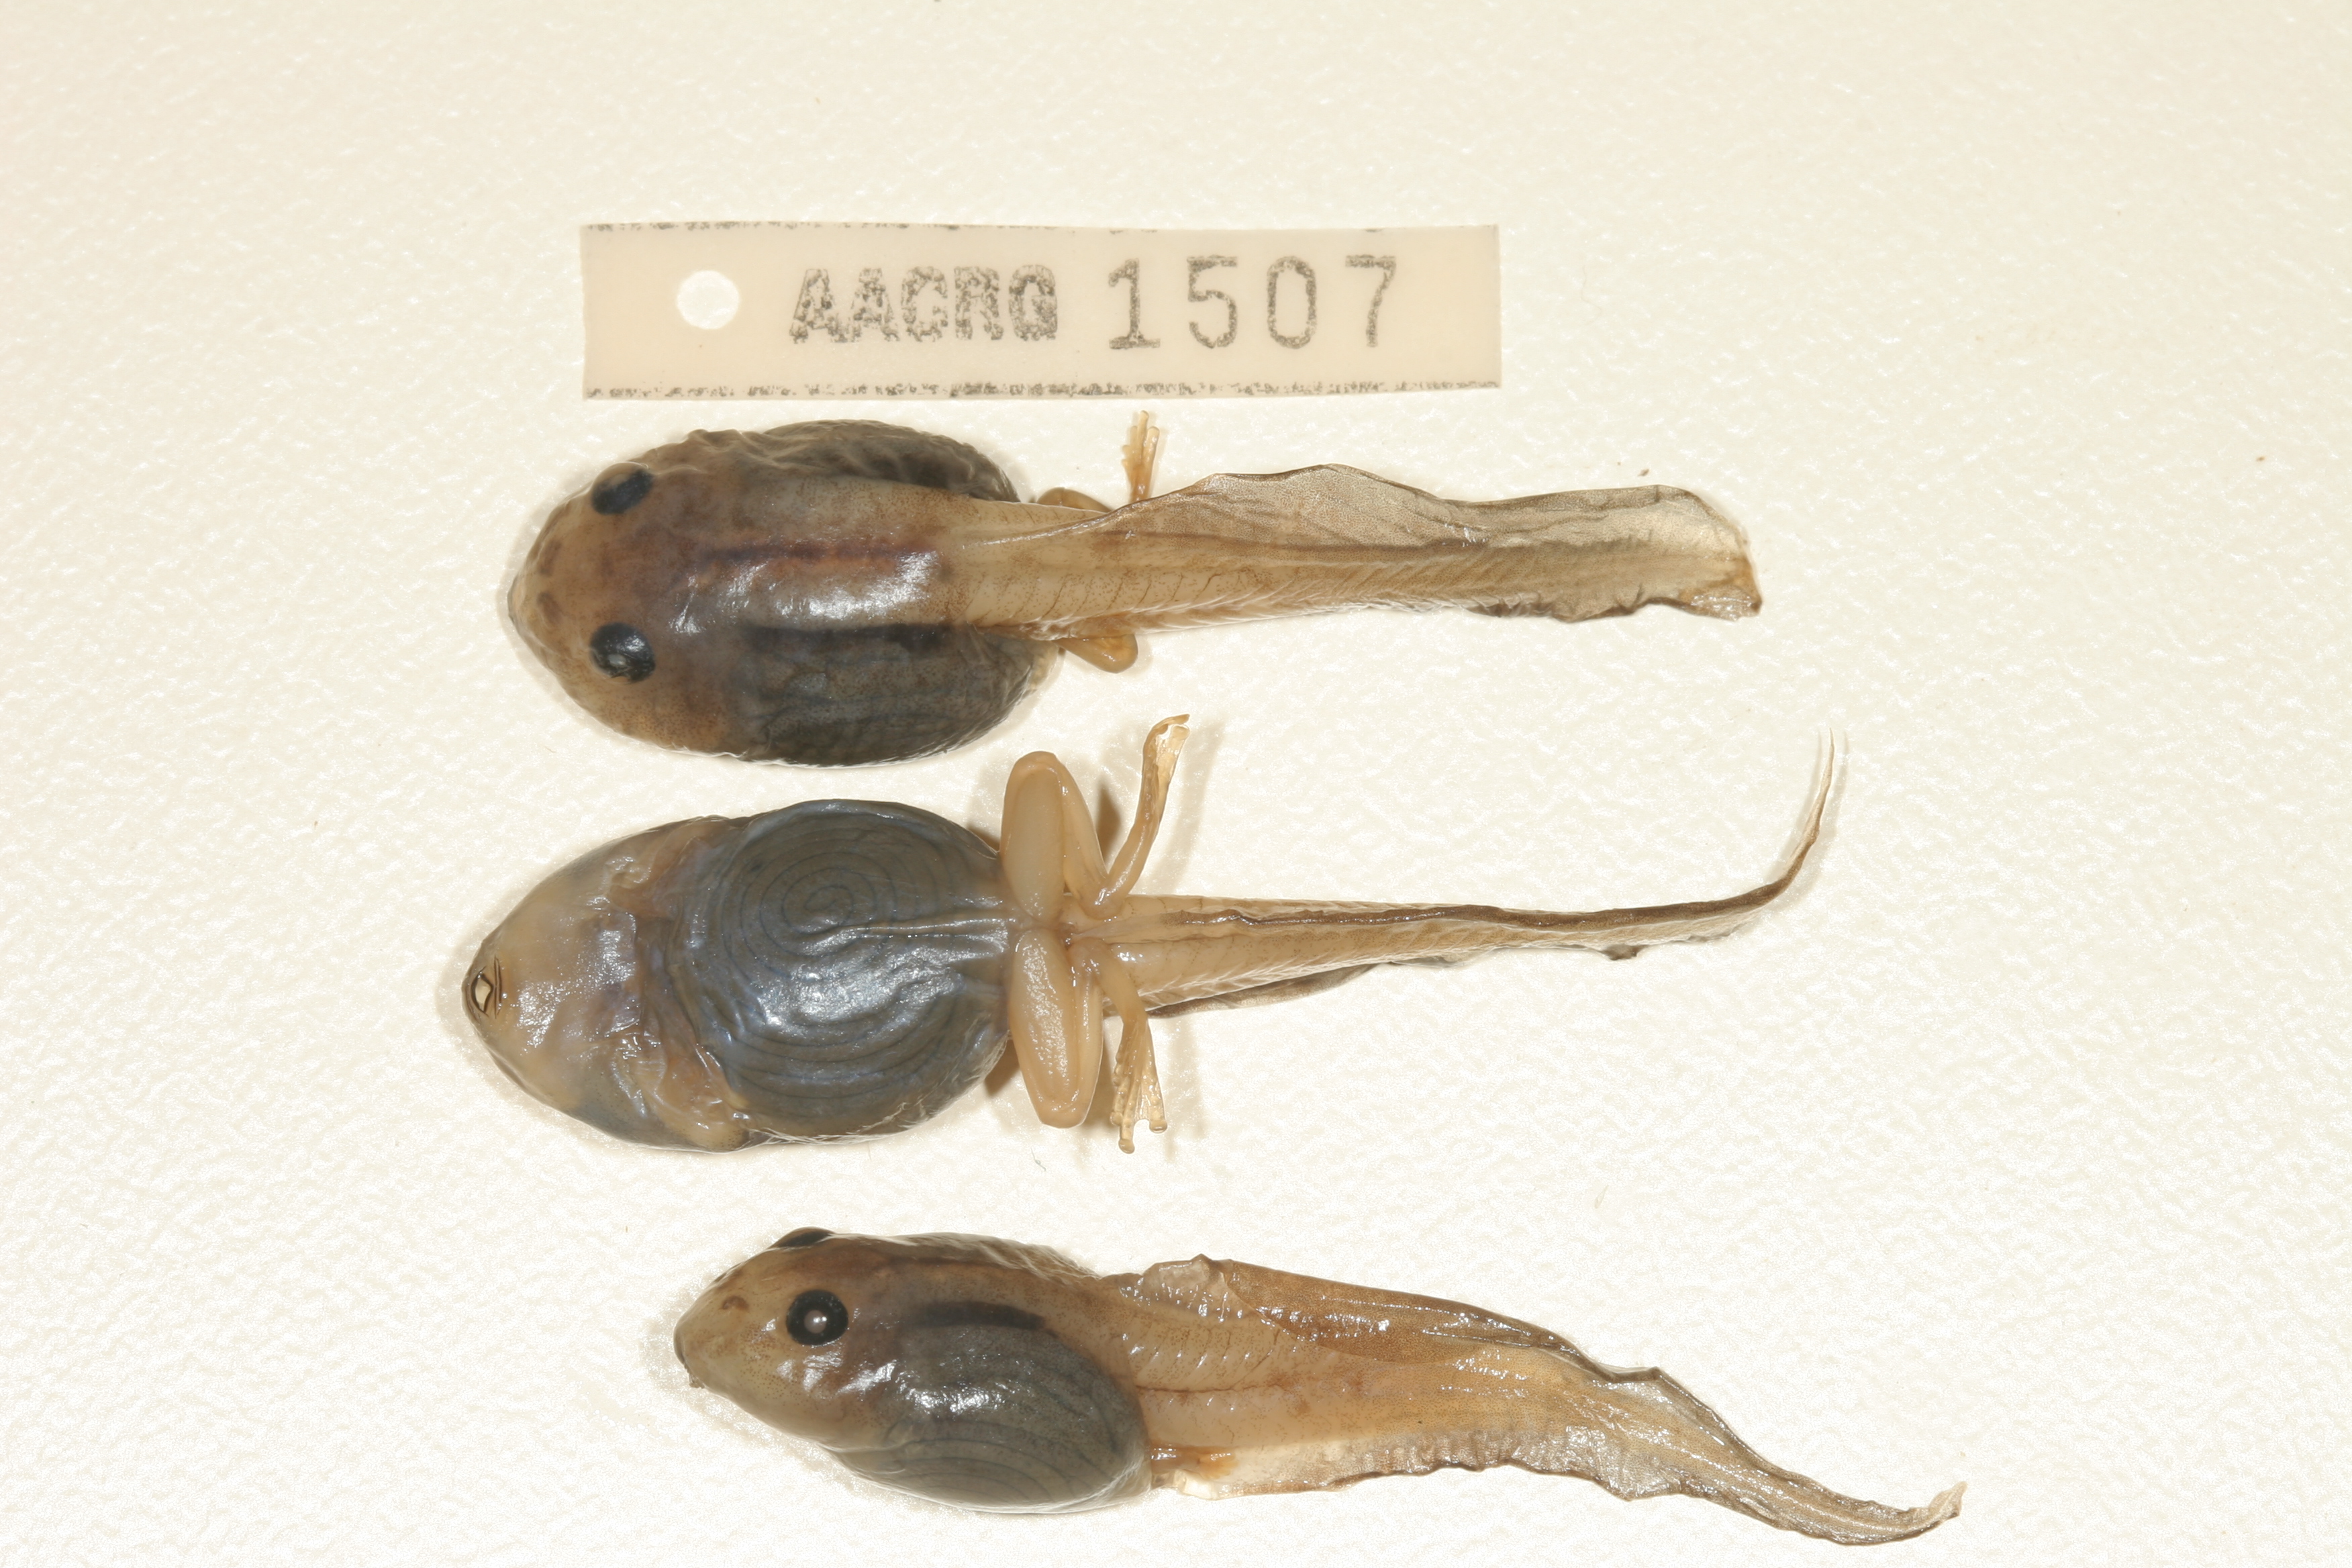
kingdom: Animalia
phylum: Chordata
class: Amphibia
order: Anura
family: Rhacophoridae
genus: Chiromantis
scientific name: Chiromantis xerampelina
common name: African gray treefrog
